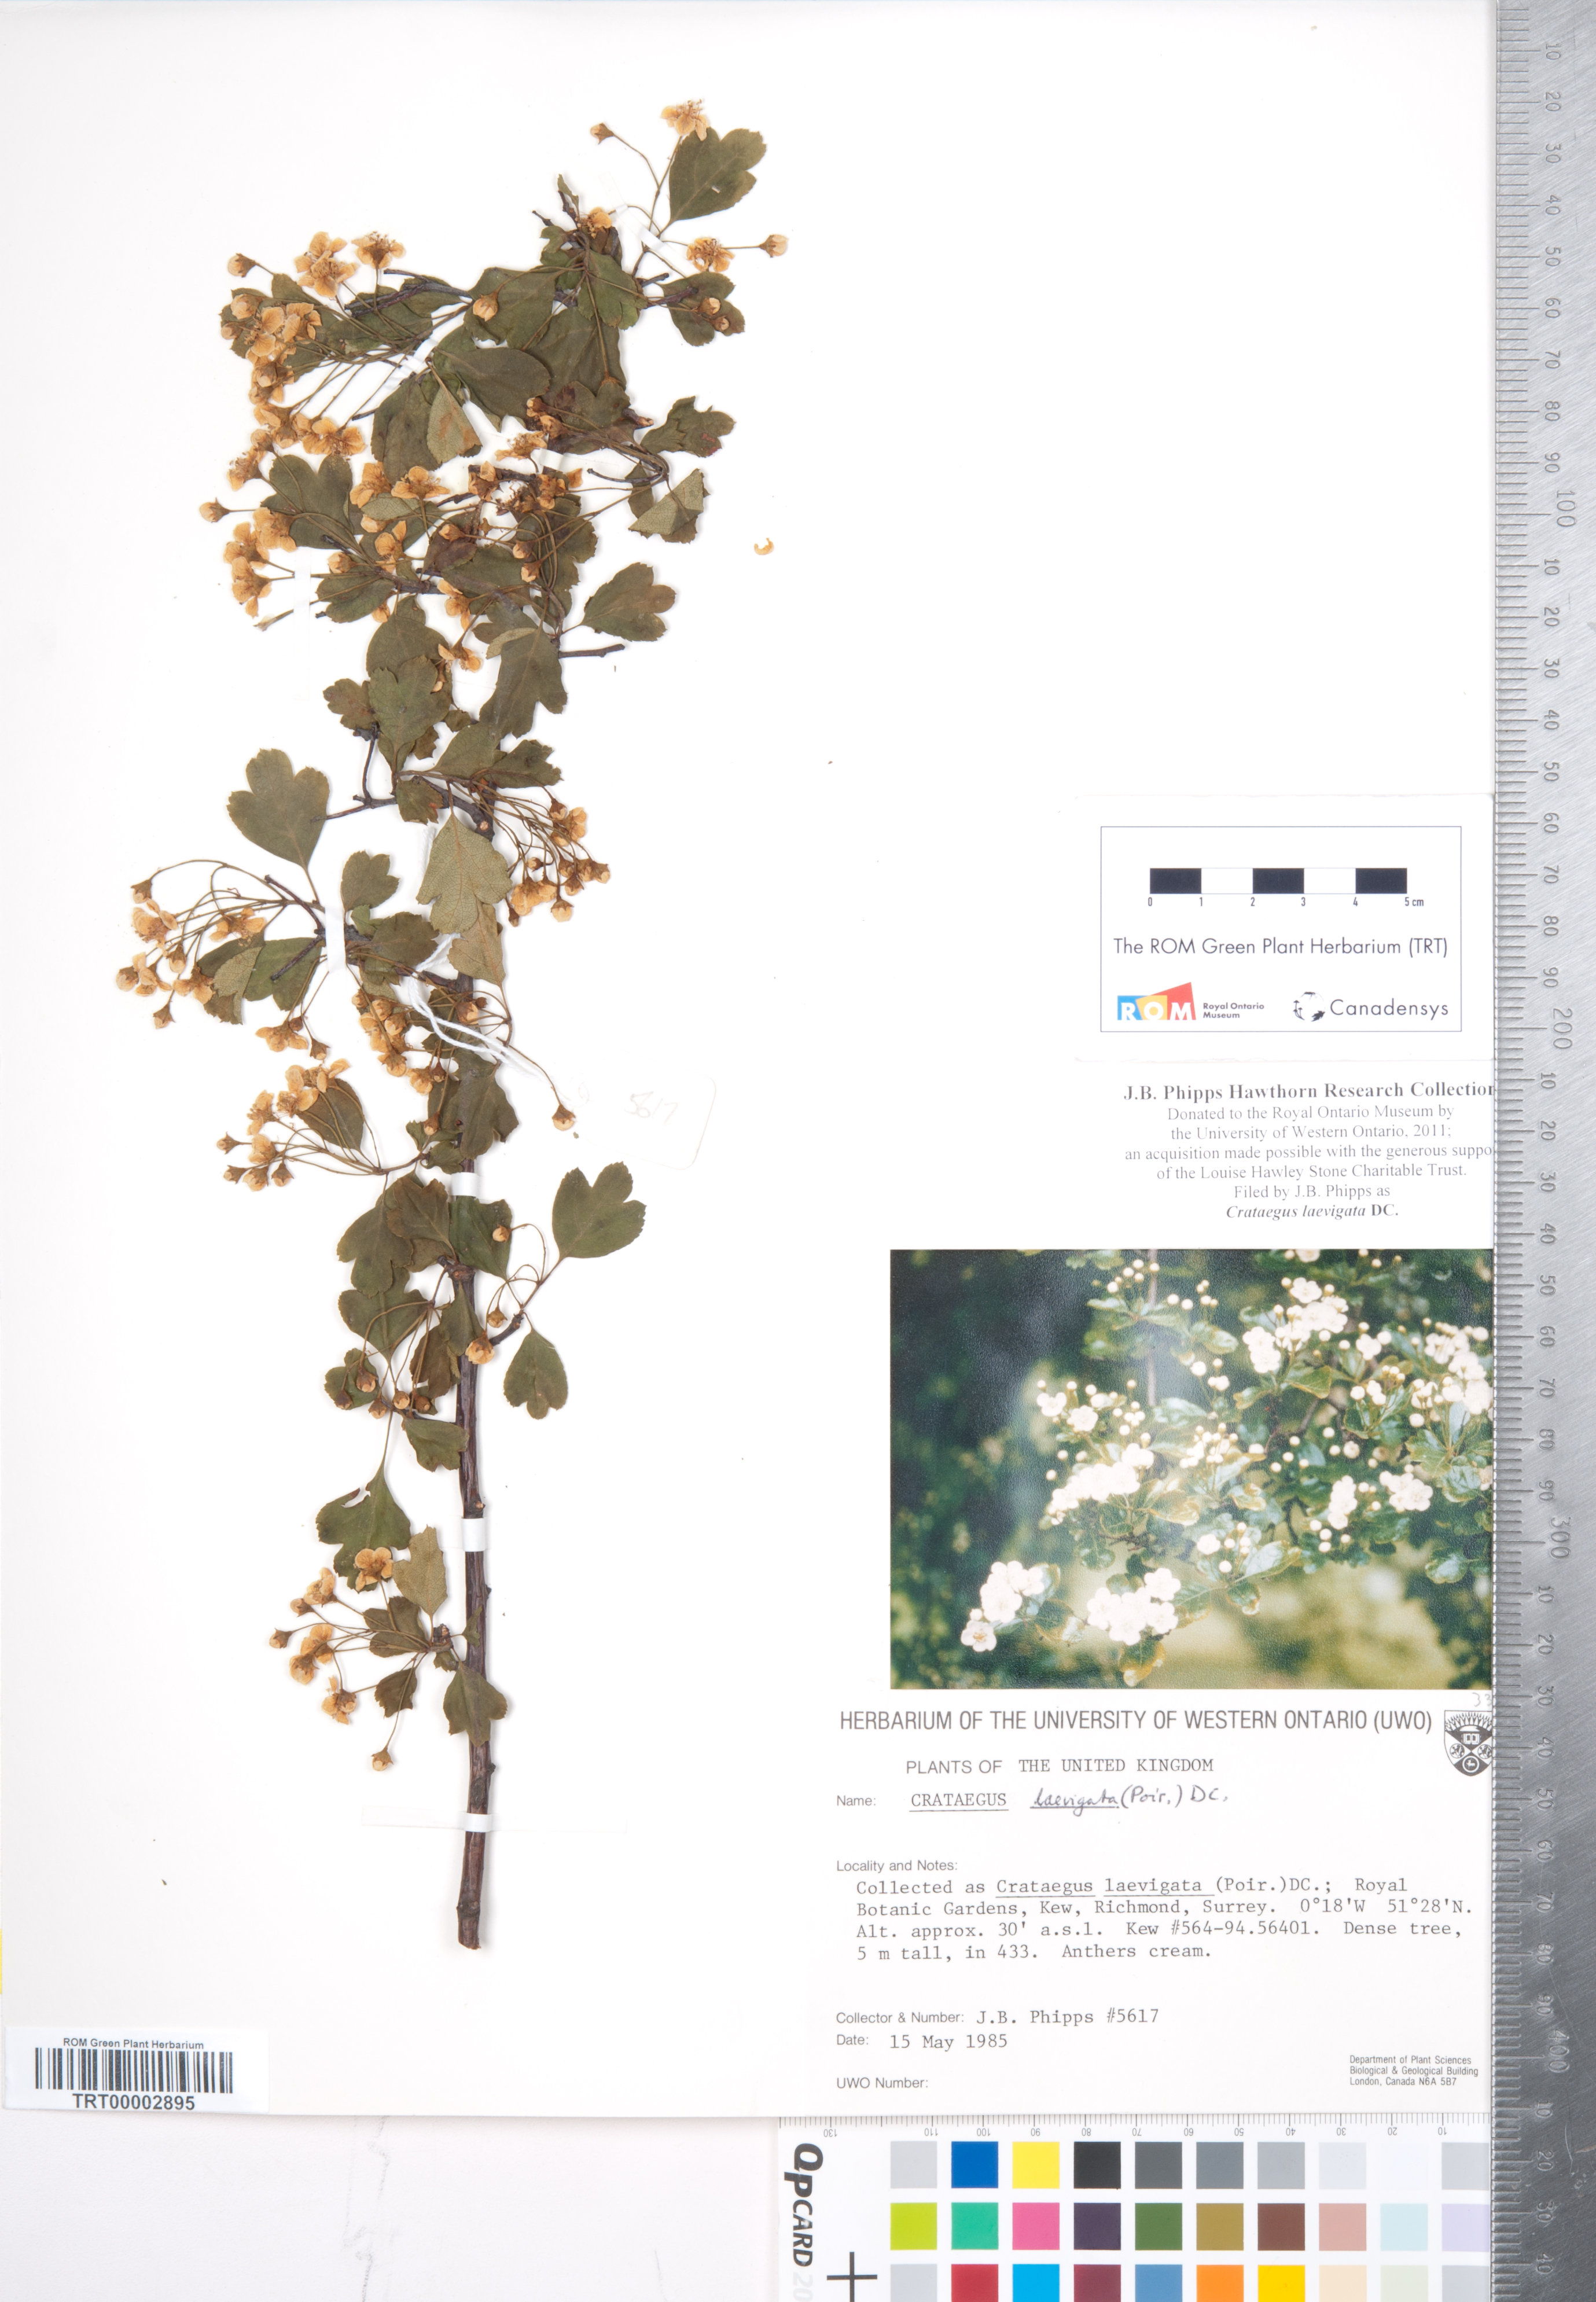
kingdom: Plantae
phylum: Tracheophyta
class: Magnoliopsida
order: Rosales
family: Rosaceae
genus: Crataegus
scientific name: Crataegus laevigata
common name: Midland hawthorn
